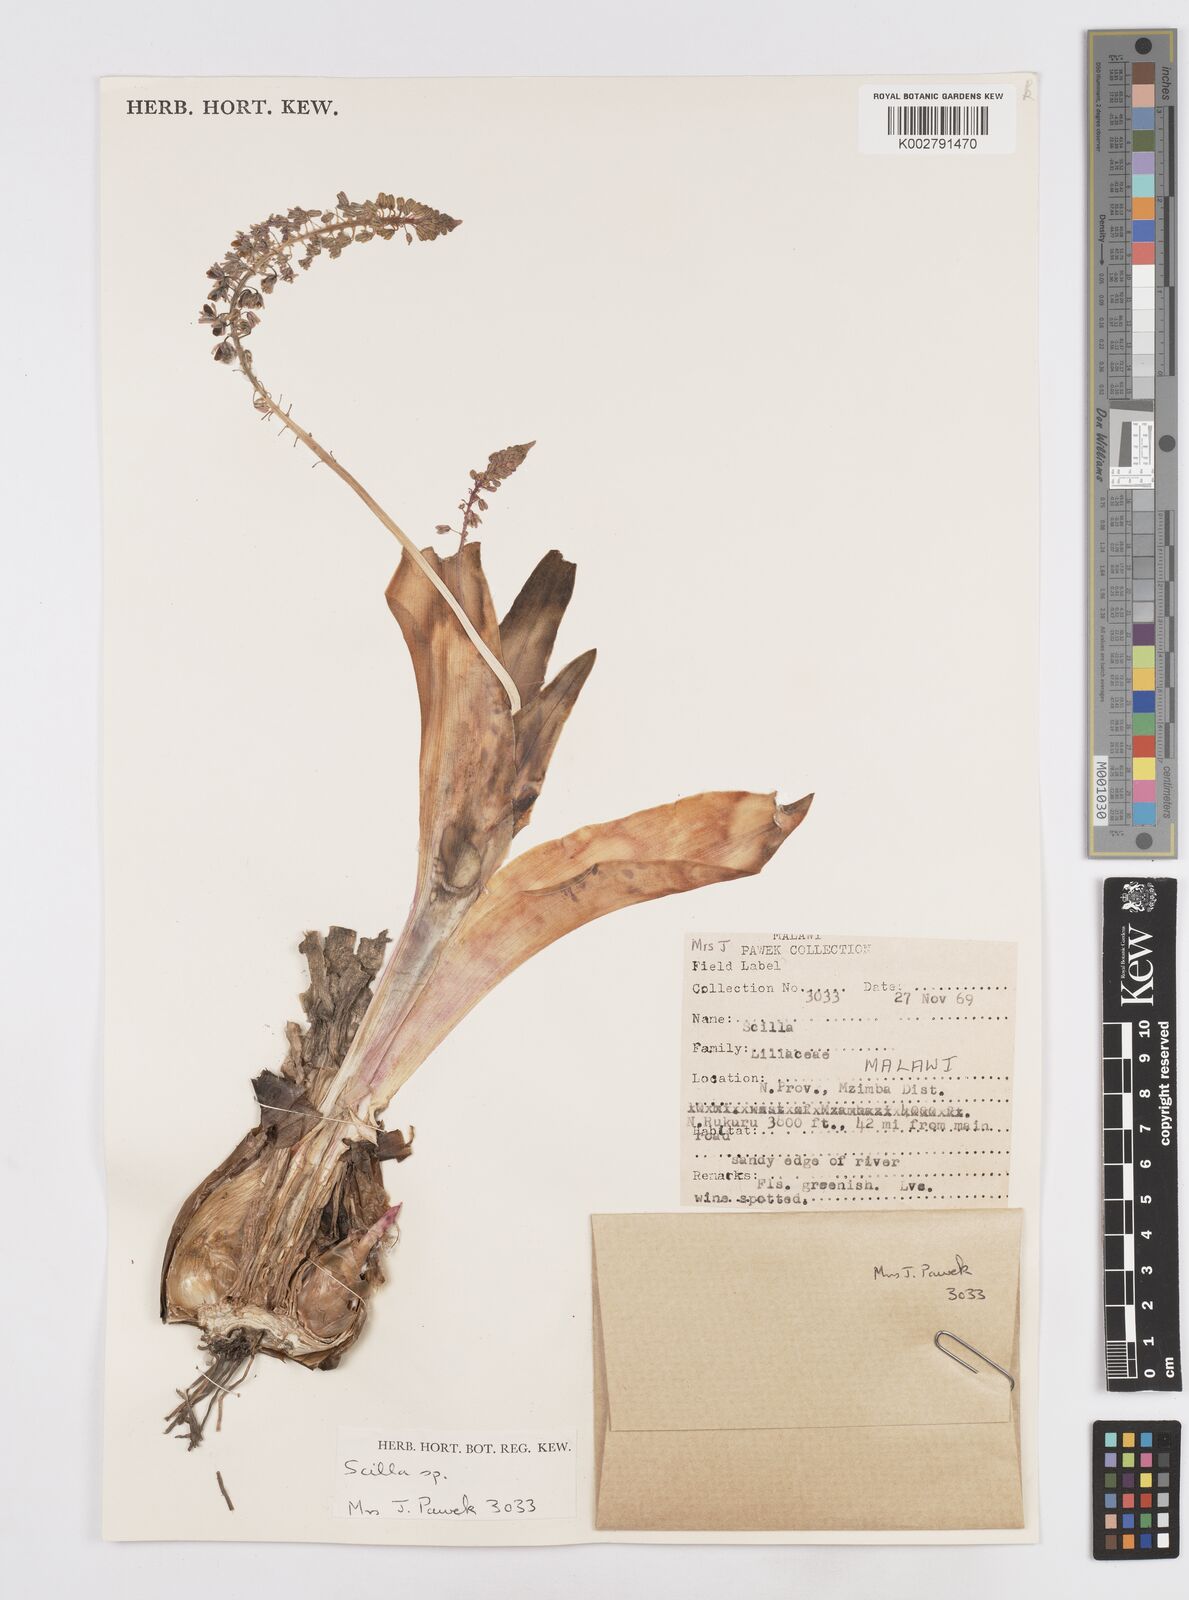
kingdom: Plantae
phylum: Tracheophyta
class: Liliopsida
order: Asparagales
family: Asparagaceae
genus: Scilla
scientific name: Scilla
